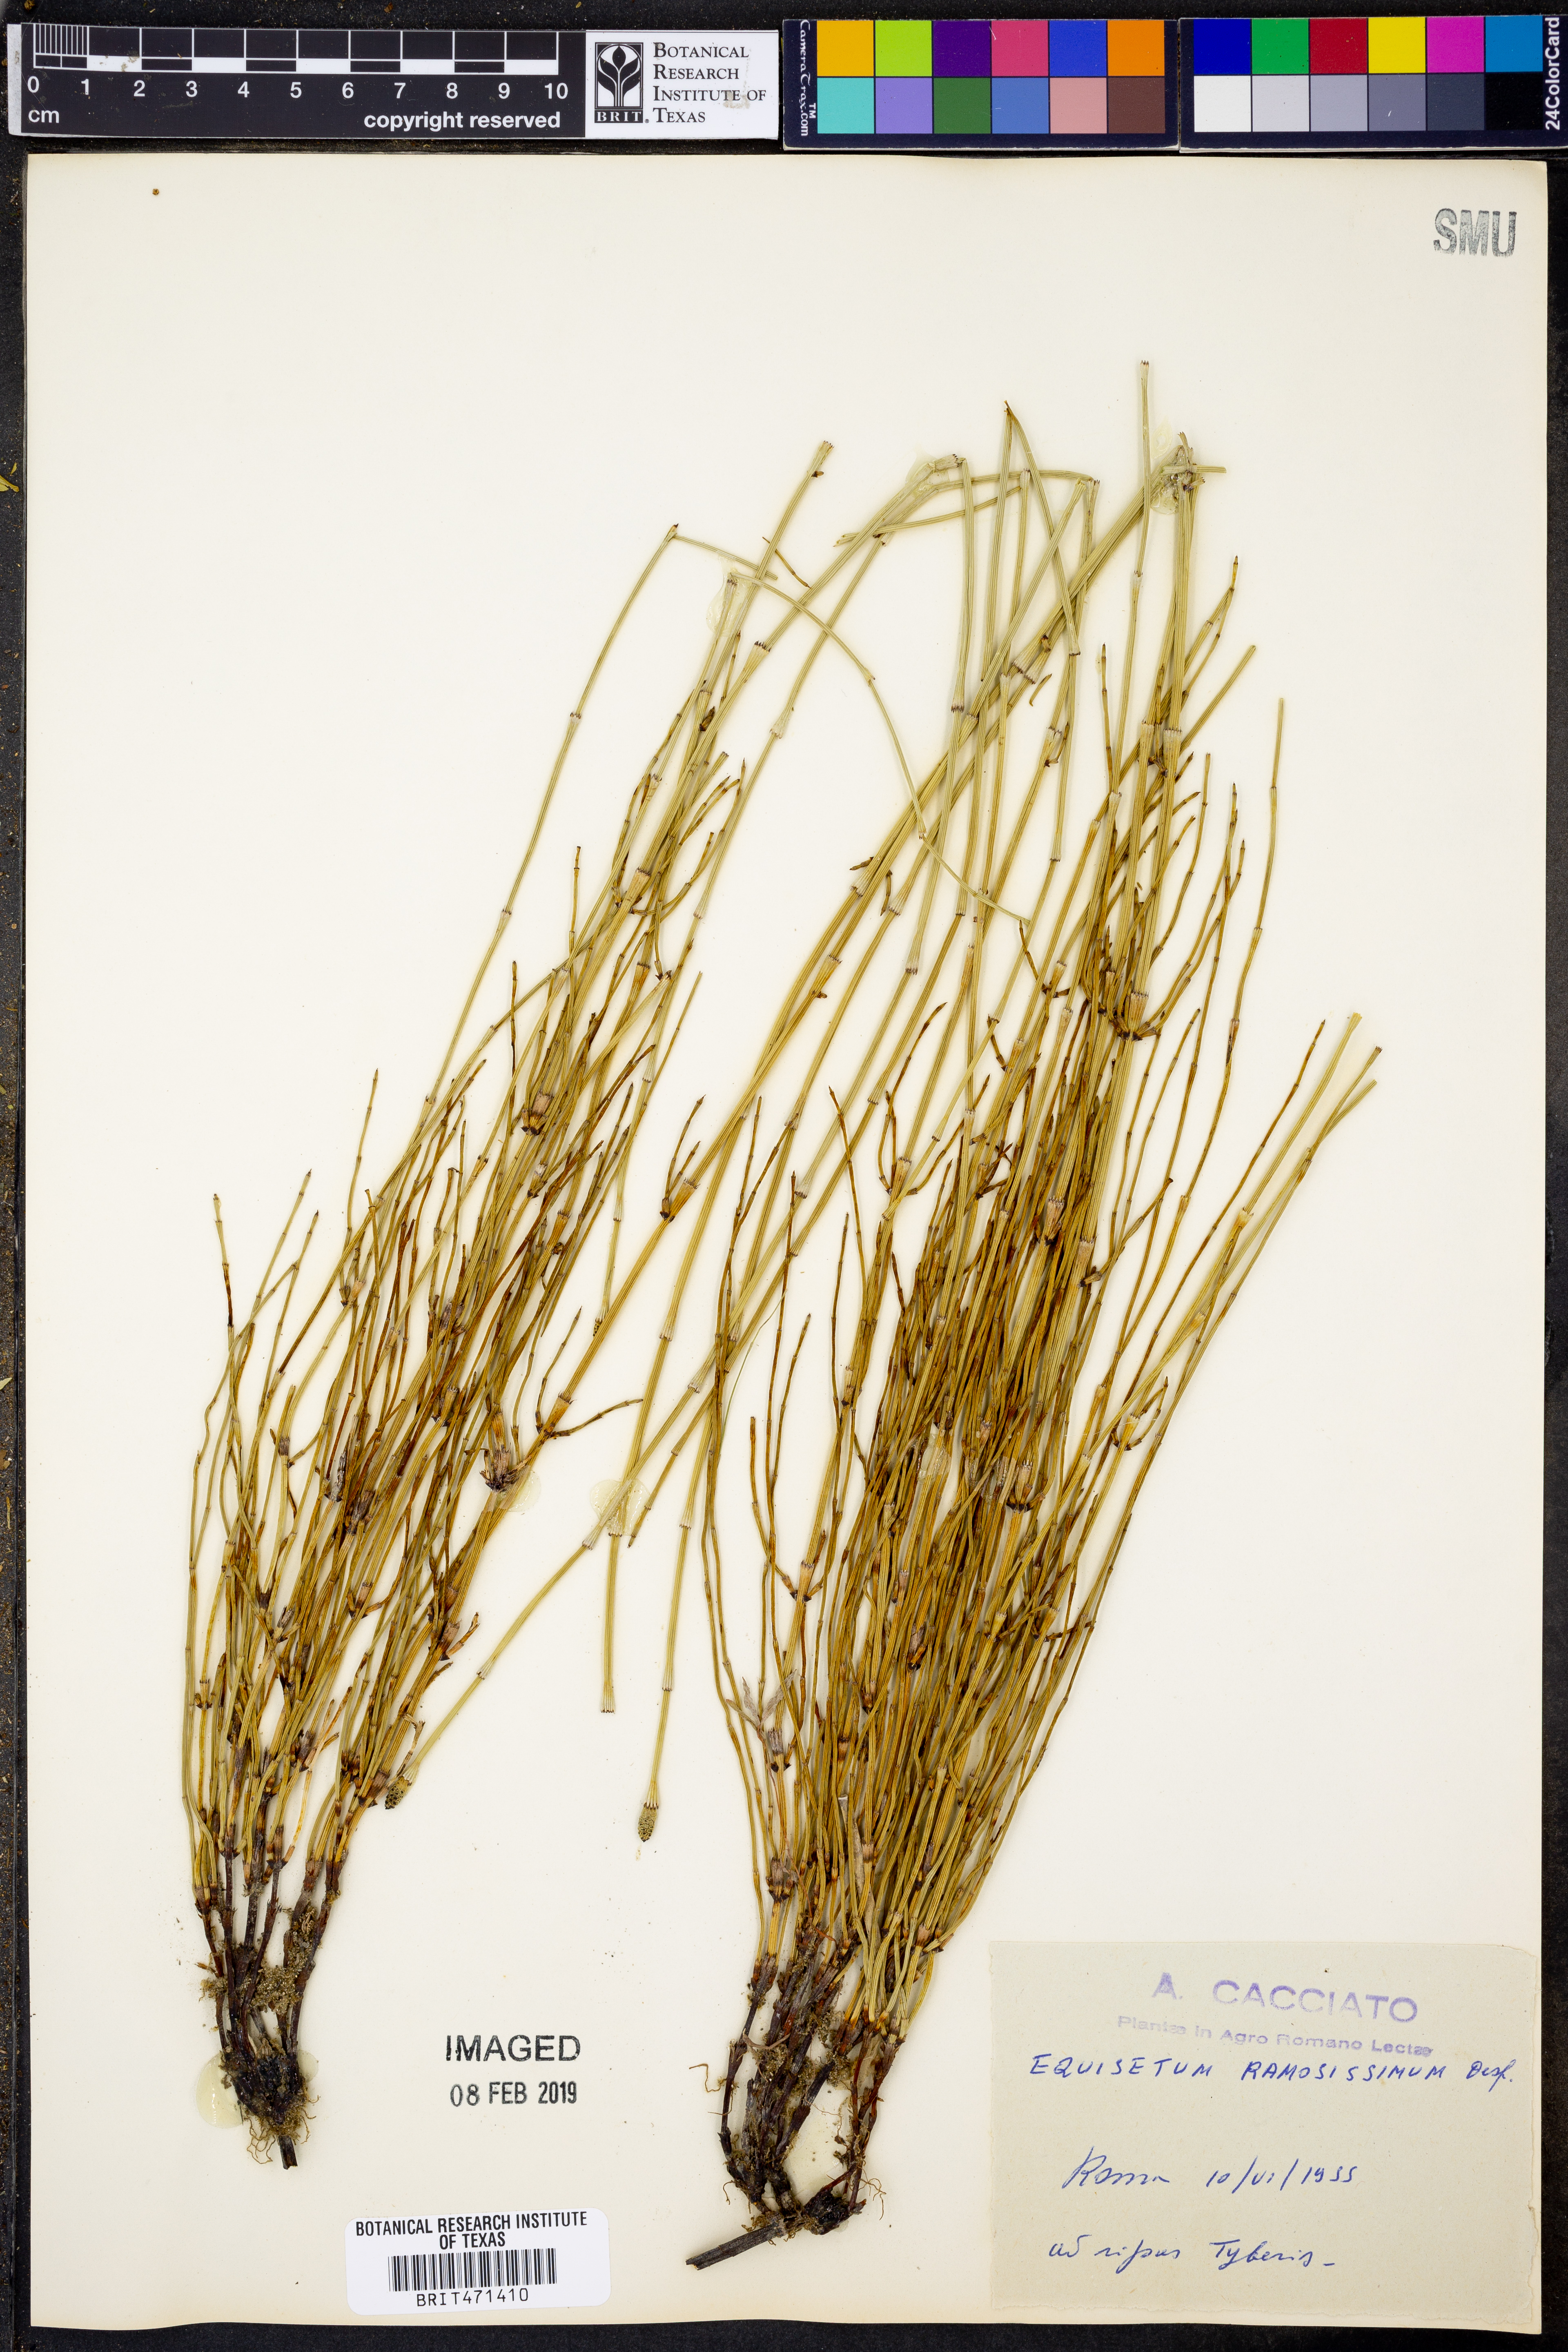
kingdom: Plantae
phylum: Tracheophyta
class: Polypodiopsida
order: Equisetales
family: Equisetaceae
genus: Equisetum
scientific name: Equisetum ramosissimum
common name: Branched horsetail
